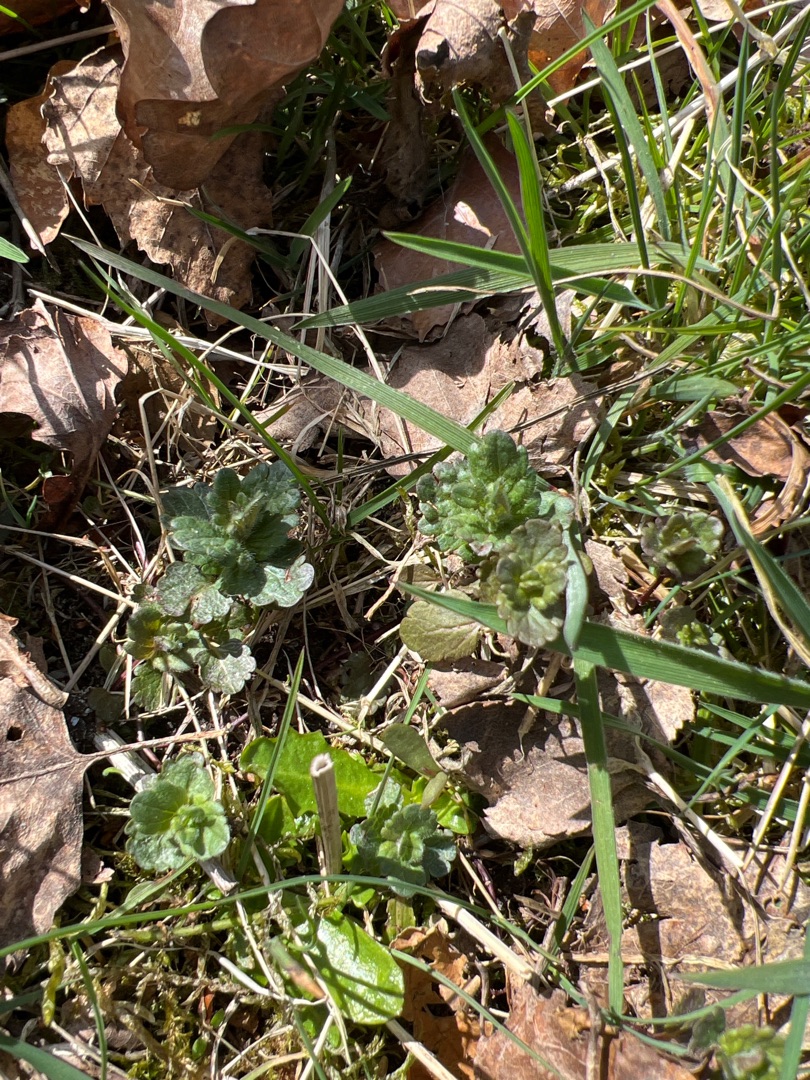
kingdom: Plantae
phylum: Tracheophyta
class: Magnoliopsida
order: Lamiales
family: Plantaginaceae
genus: Veronica
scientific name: Veronica chamaedrys
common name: Tveskægget ærenpris
